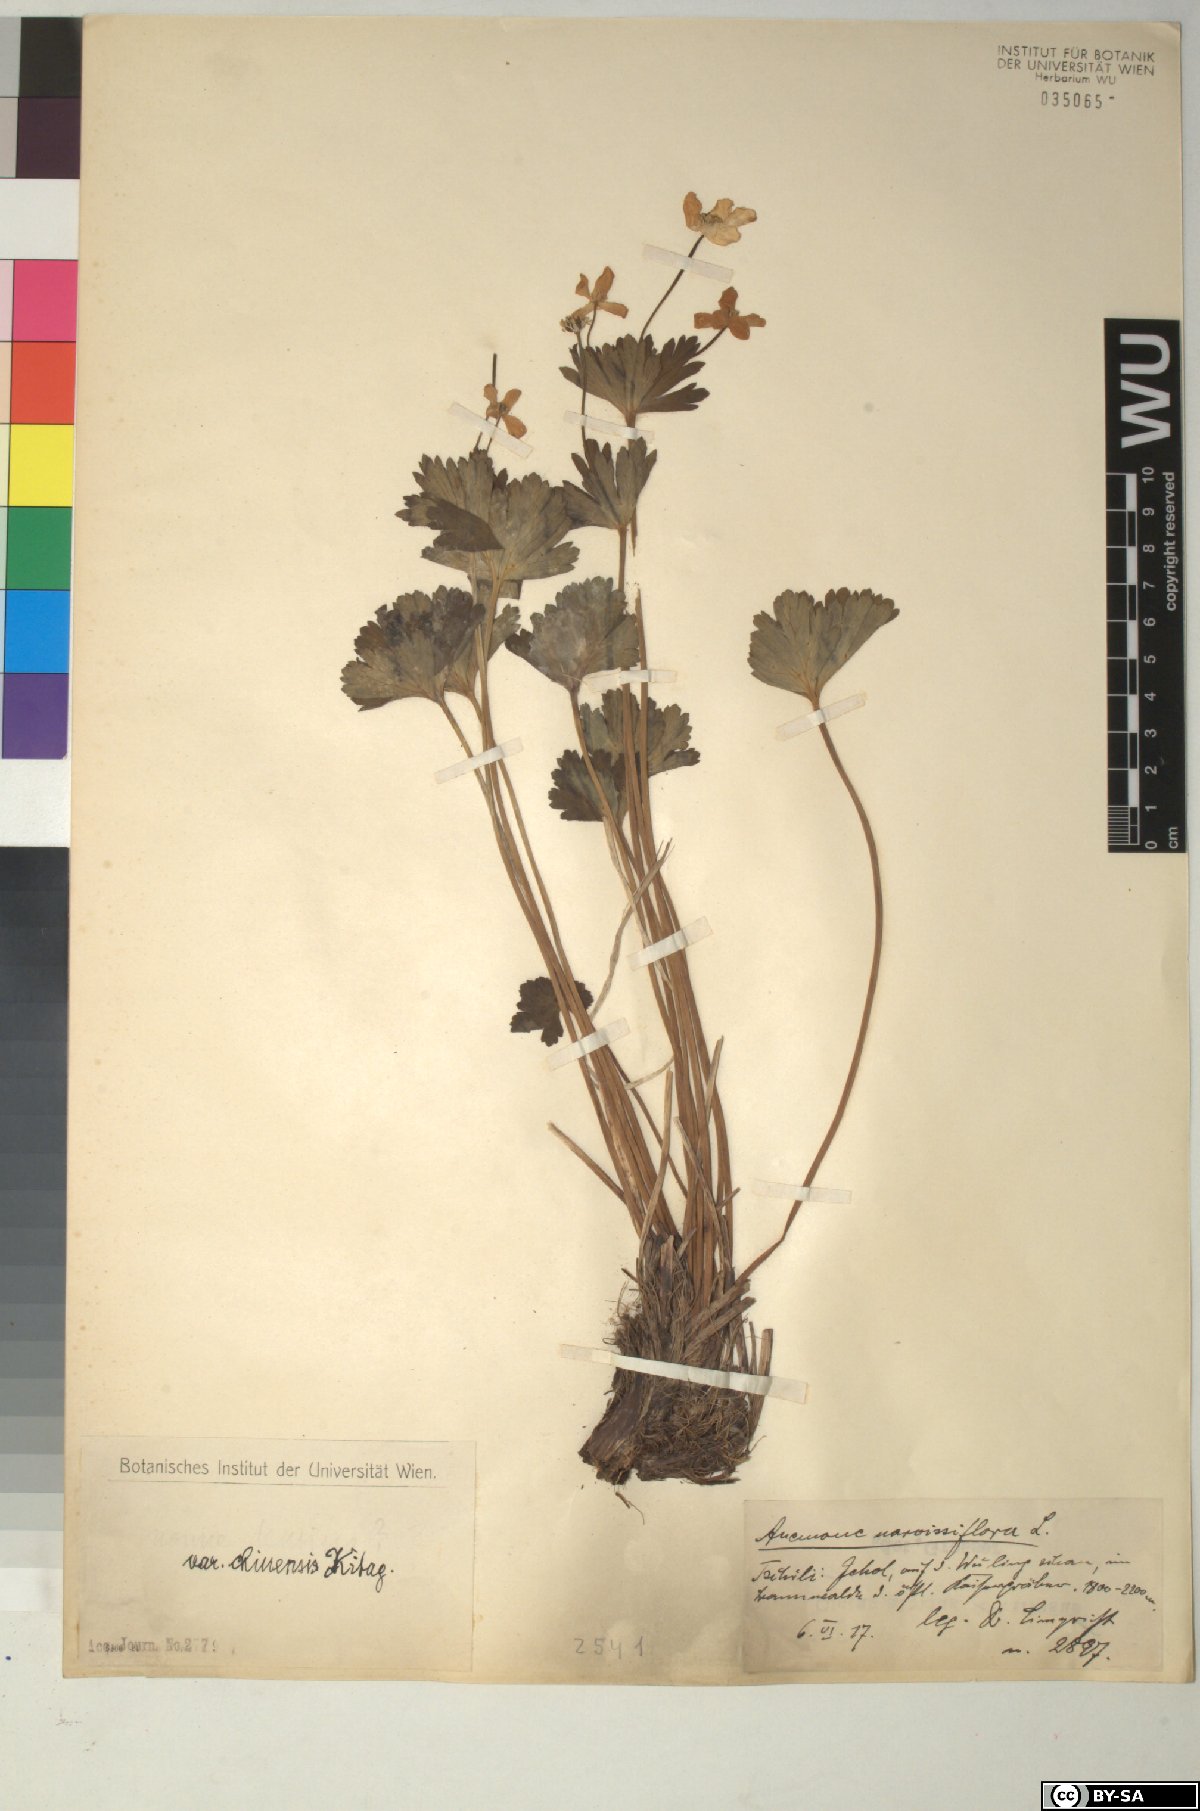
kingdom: Plantae
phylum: Tracheophyta
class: Magnoliopsida
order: Ranunculales
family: Ranunculaceae
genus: Anemonastrum
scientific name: Anemonastrum narcissiflorum
